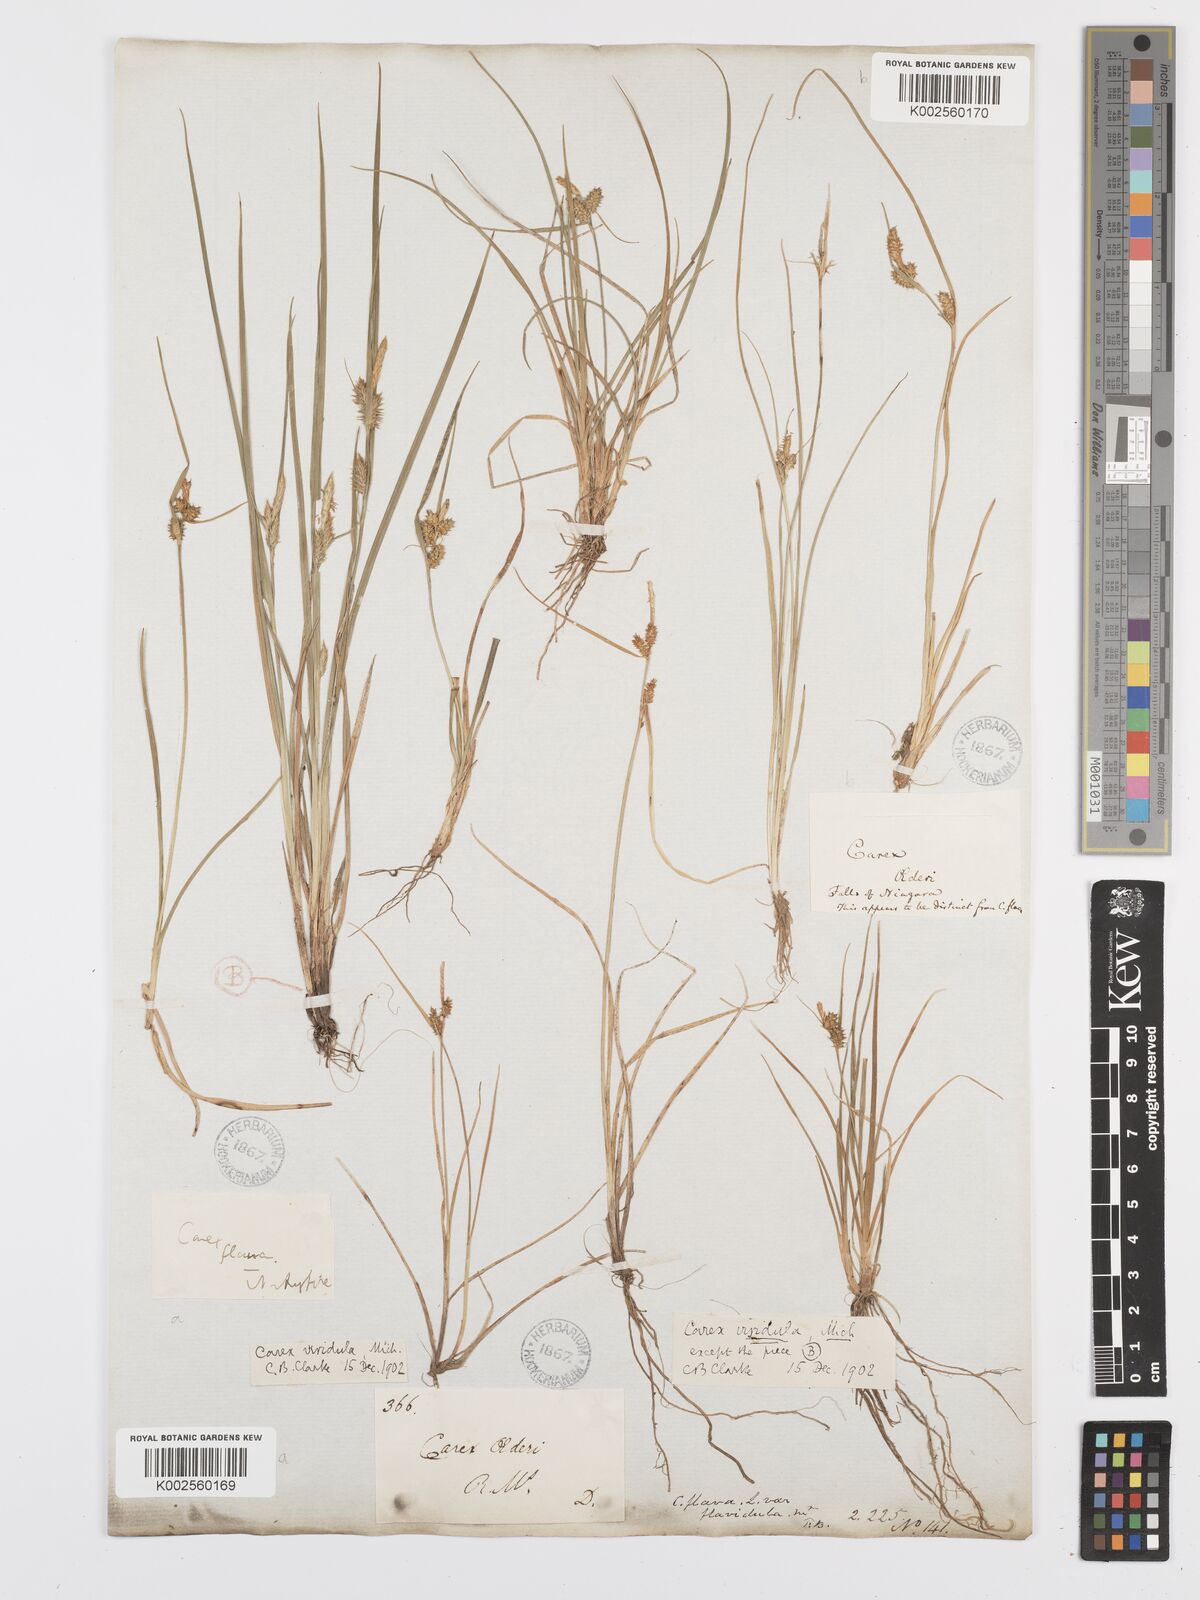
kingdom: Plantae
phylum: Tracheophyta
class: Liliopsida
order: Poales
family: Cyperaceae
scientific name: Cyperaceae
